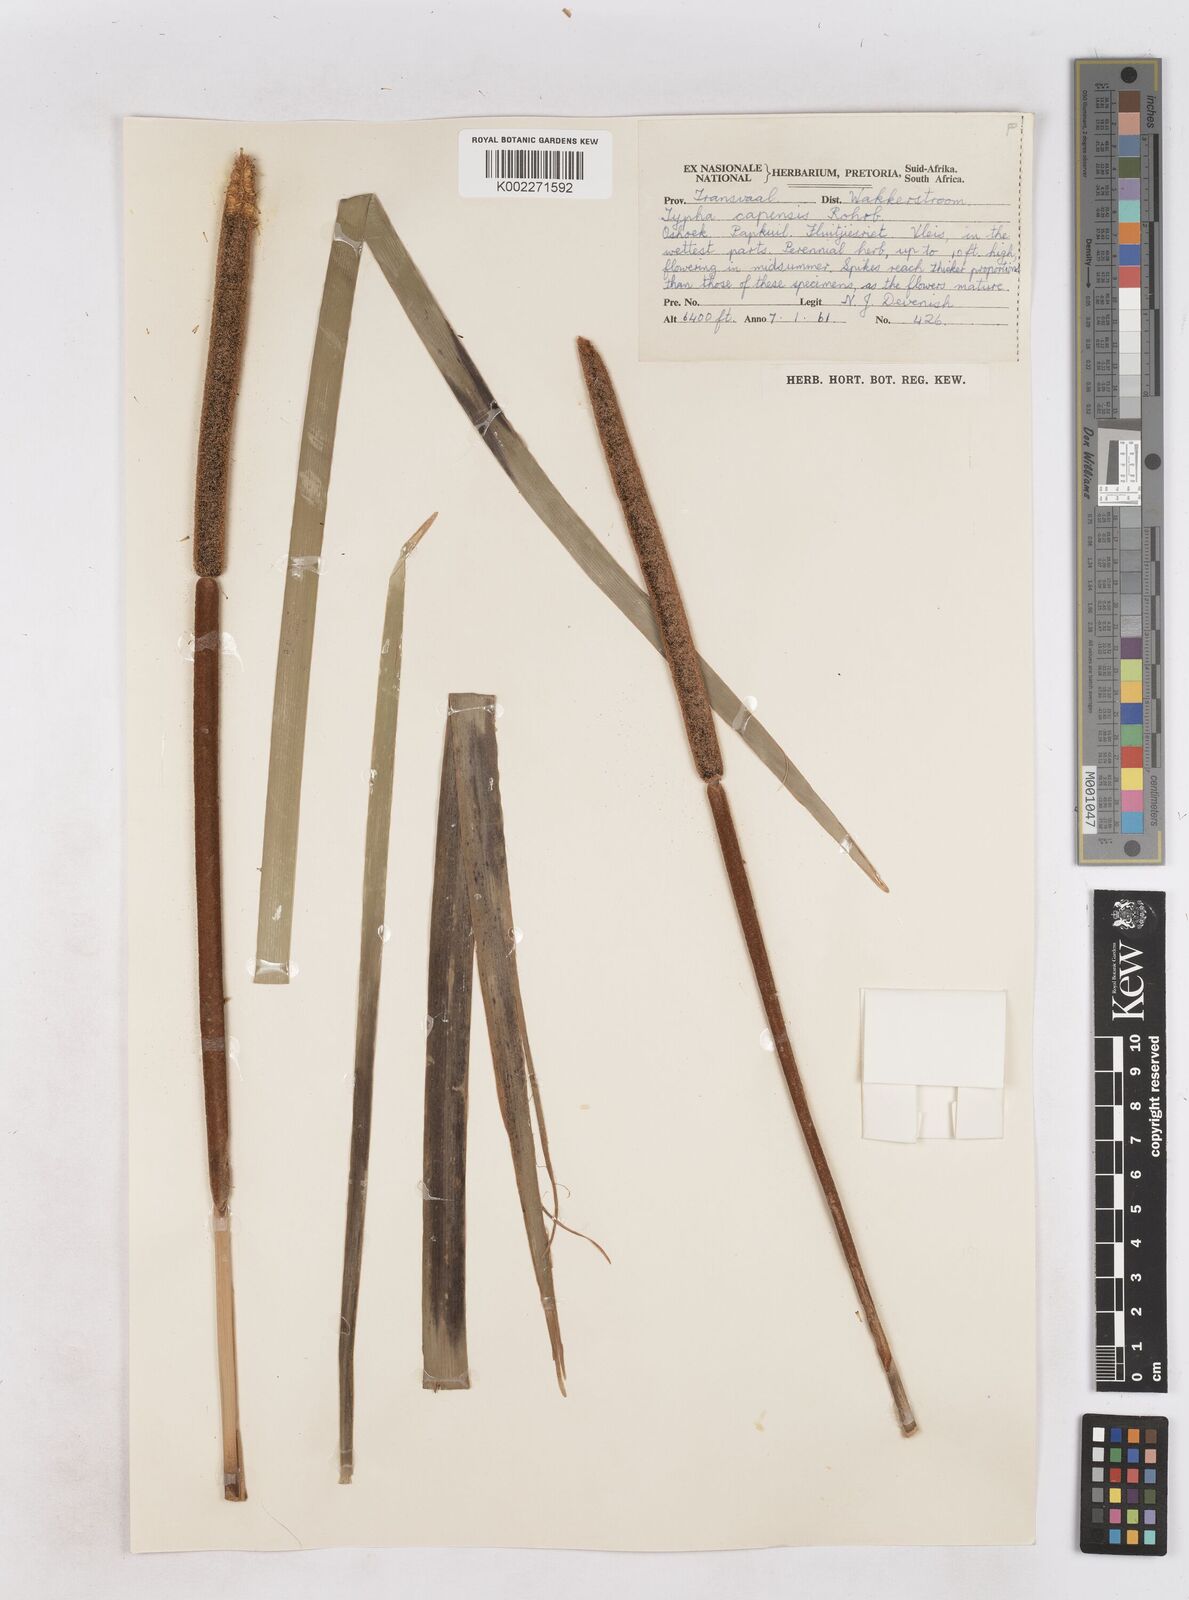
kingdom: Plantae
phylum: Tracheophyta
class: Liliopsida
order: Poales
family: Typhaceae
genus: Typha
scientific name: Typha capensis
